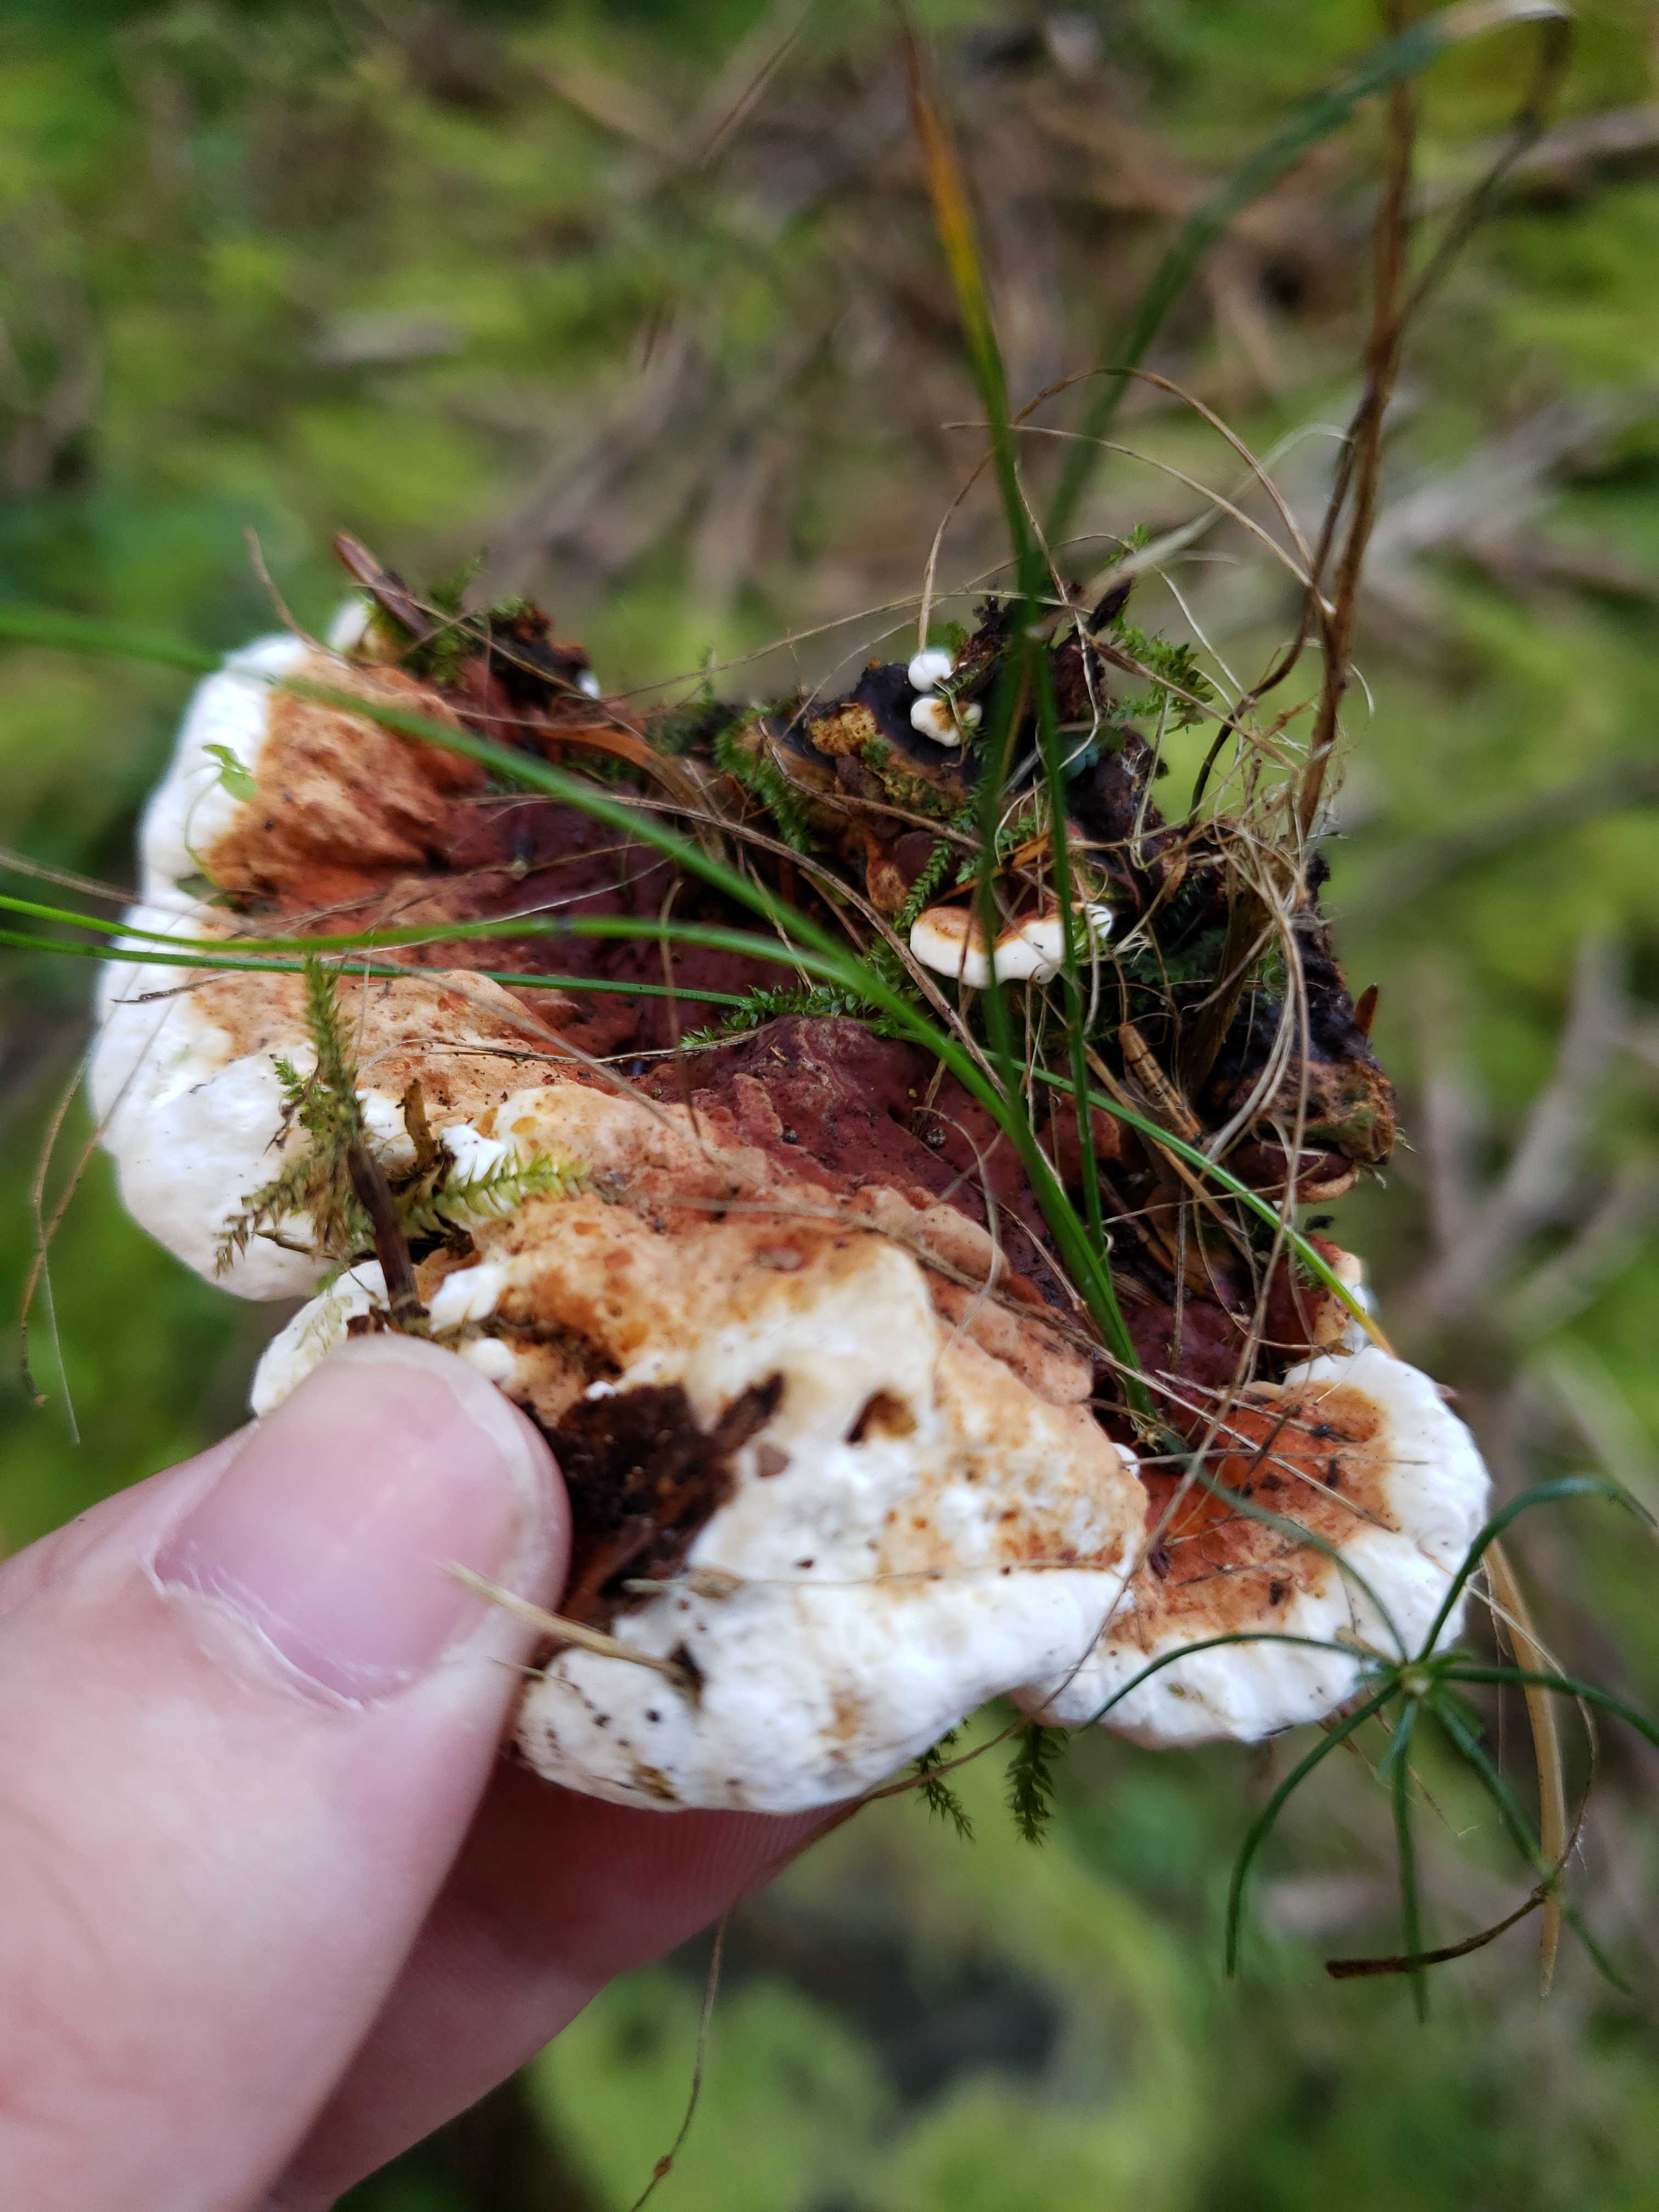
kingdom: Fungi
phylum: Basidiomycota
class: Agaricomycetes
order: Russulales
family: Bondarzewiaceae
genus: Heterobasidion
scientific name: Heterobasidion annosum
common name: almindelig rodfordærver
